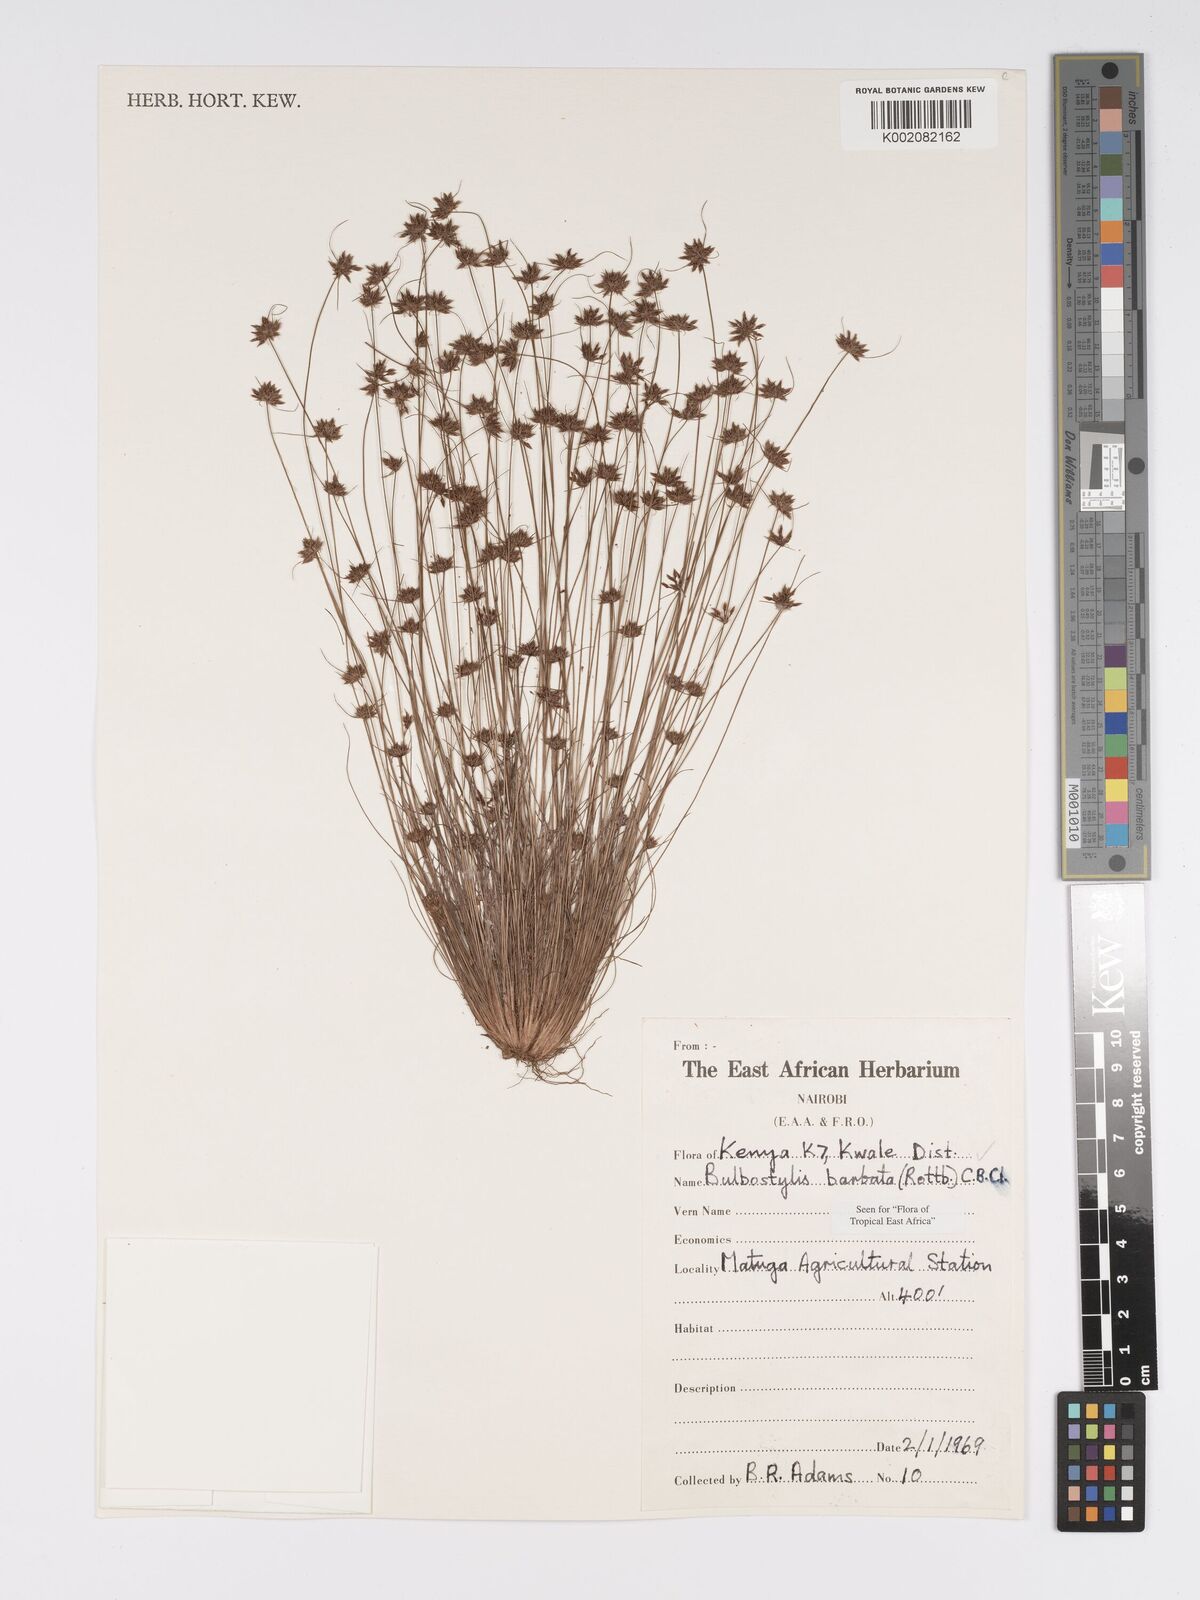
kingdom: Plantae
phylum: Tracheophyta
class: Liliopsida
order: Poales
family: Cyperaceae
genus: Bulbostylis
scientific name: Bulbostylis barbata
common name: Watergrass
